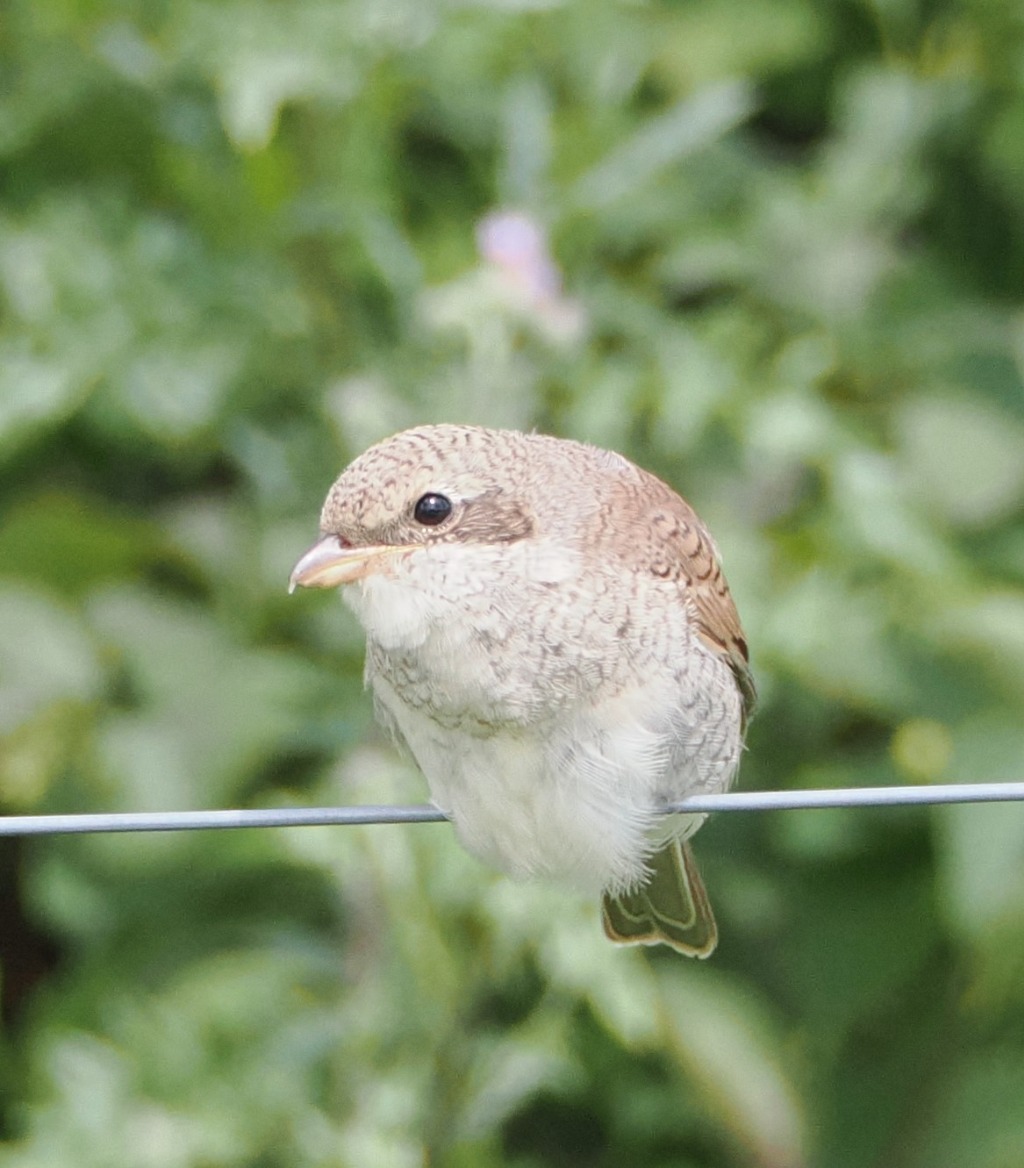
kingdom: Animalia
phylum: Chordata
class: Aves
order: Passeriformes
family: Laniidae
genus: Lanius
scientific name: Lanius collurio
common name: Rødrygget tornskade
